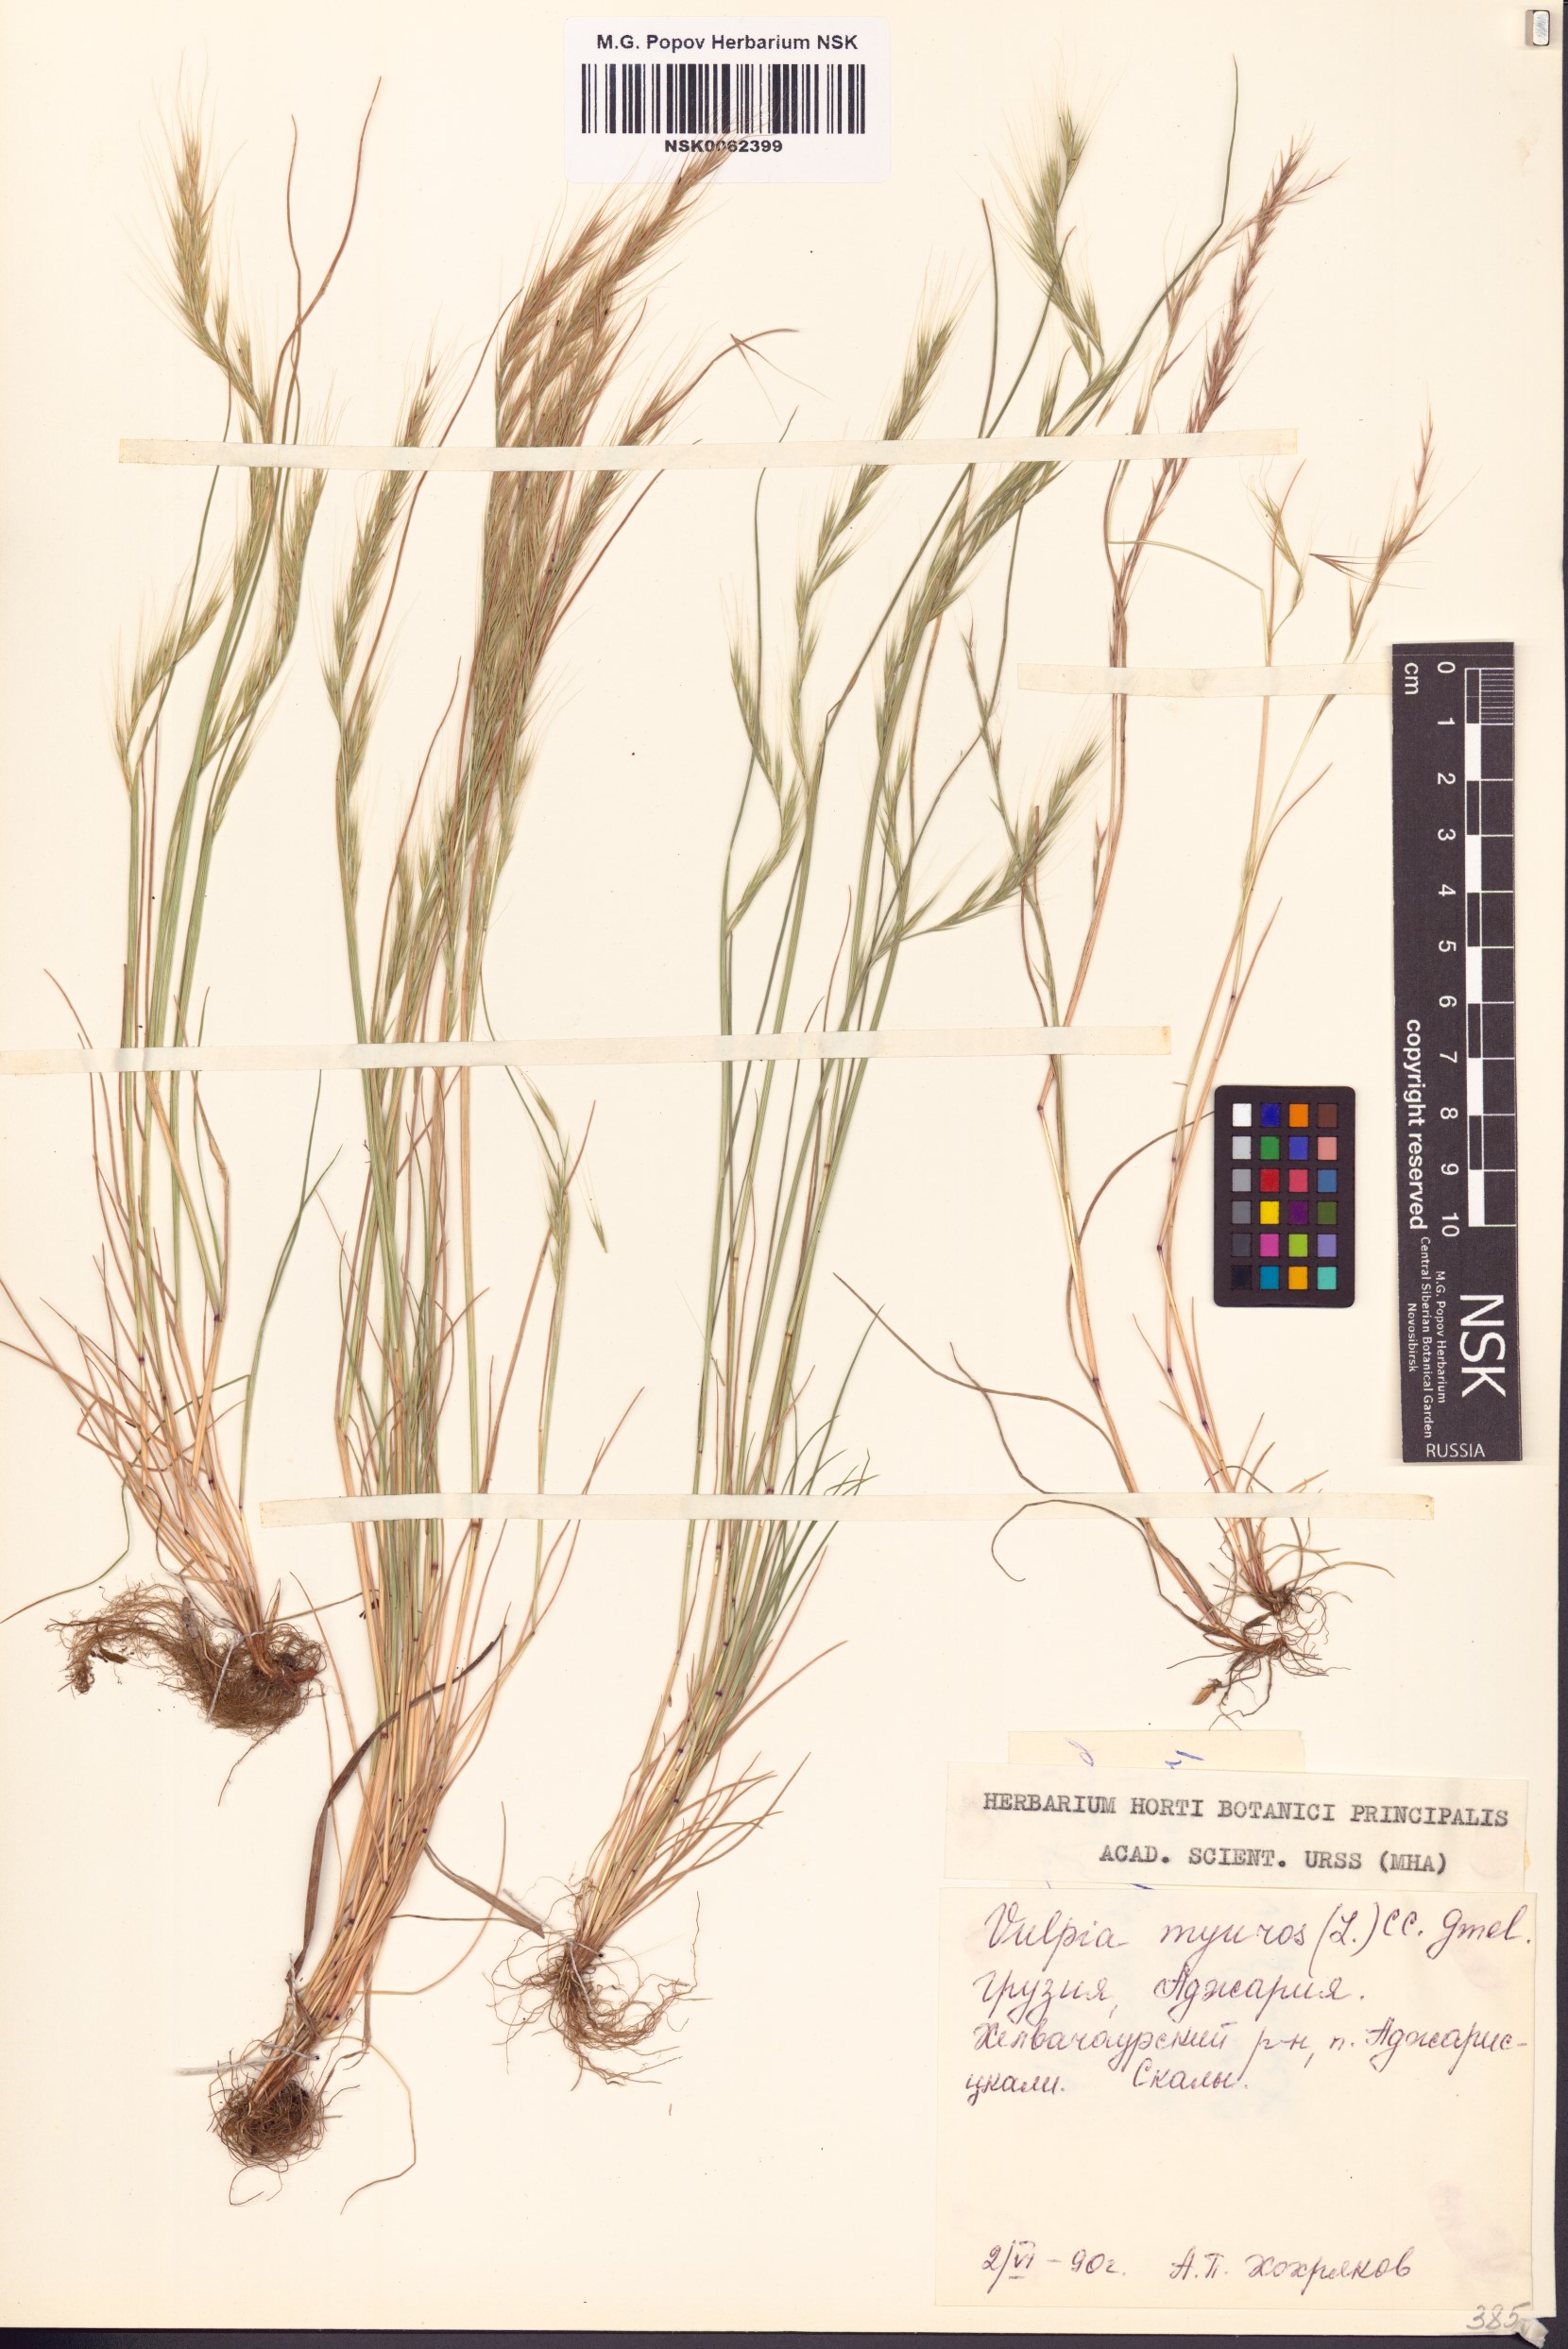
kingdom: Plantae
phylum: Tracheophyta
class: Liliopsida
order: Poales
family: Poaceae
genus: Festuca
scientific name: Festuca myuros
